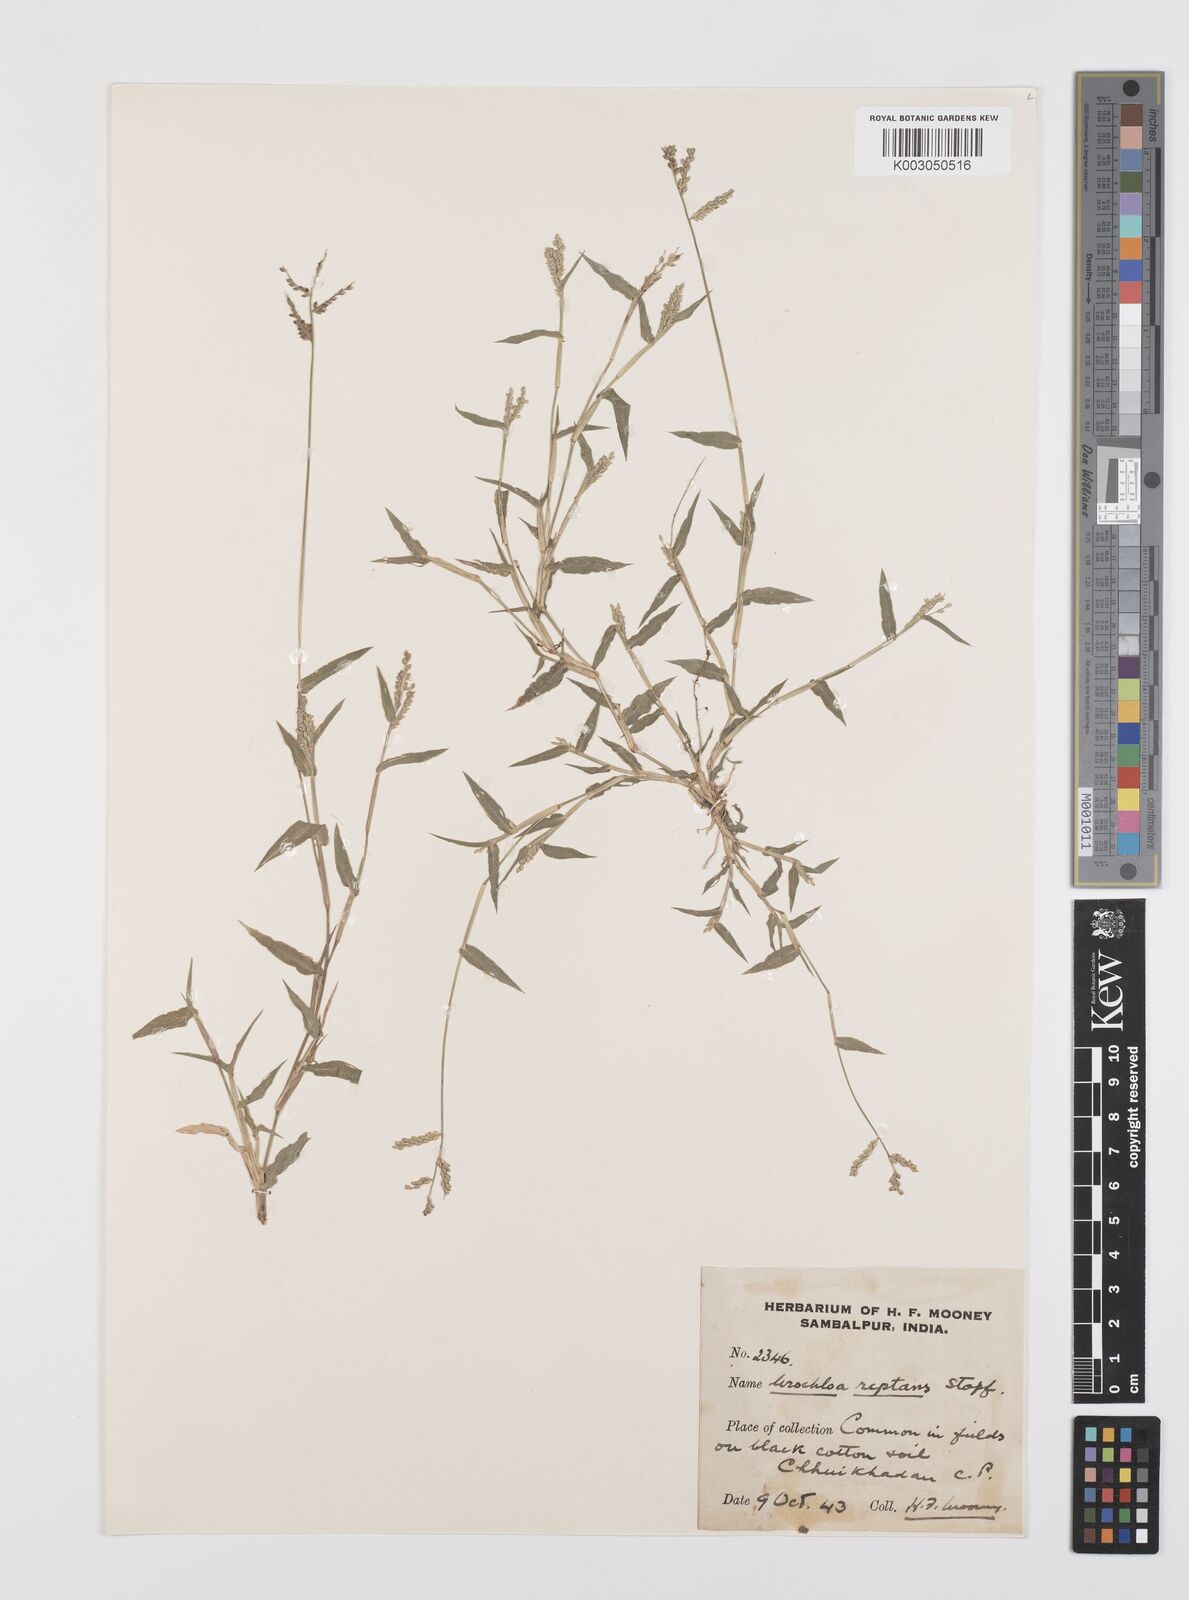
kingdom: Plantae
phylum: Tracheophyta
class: Liliopsida
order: Poales
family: Poaceae
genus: Urochloa
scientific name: Urochloa reptans
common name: Sprawling signalgrass
